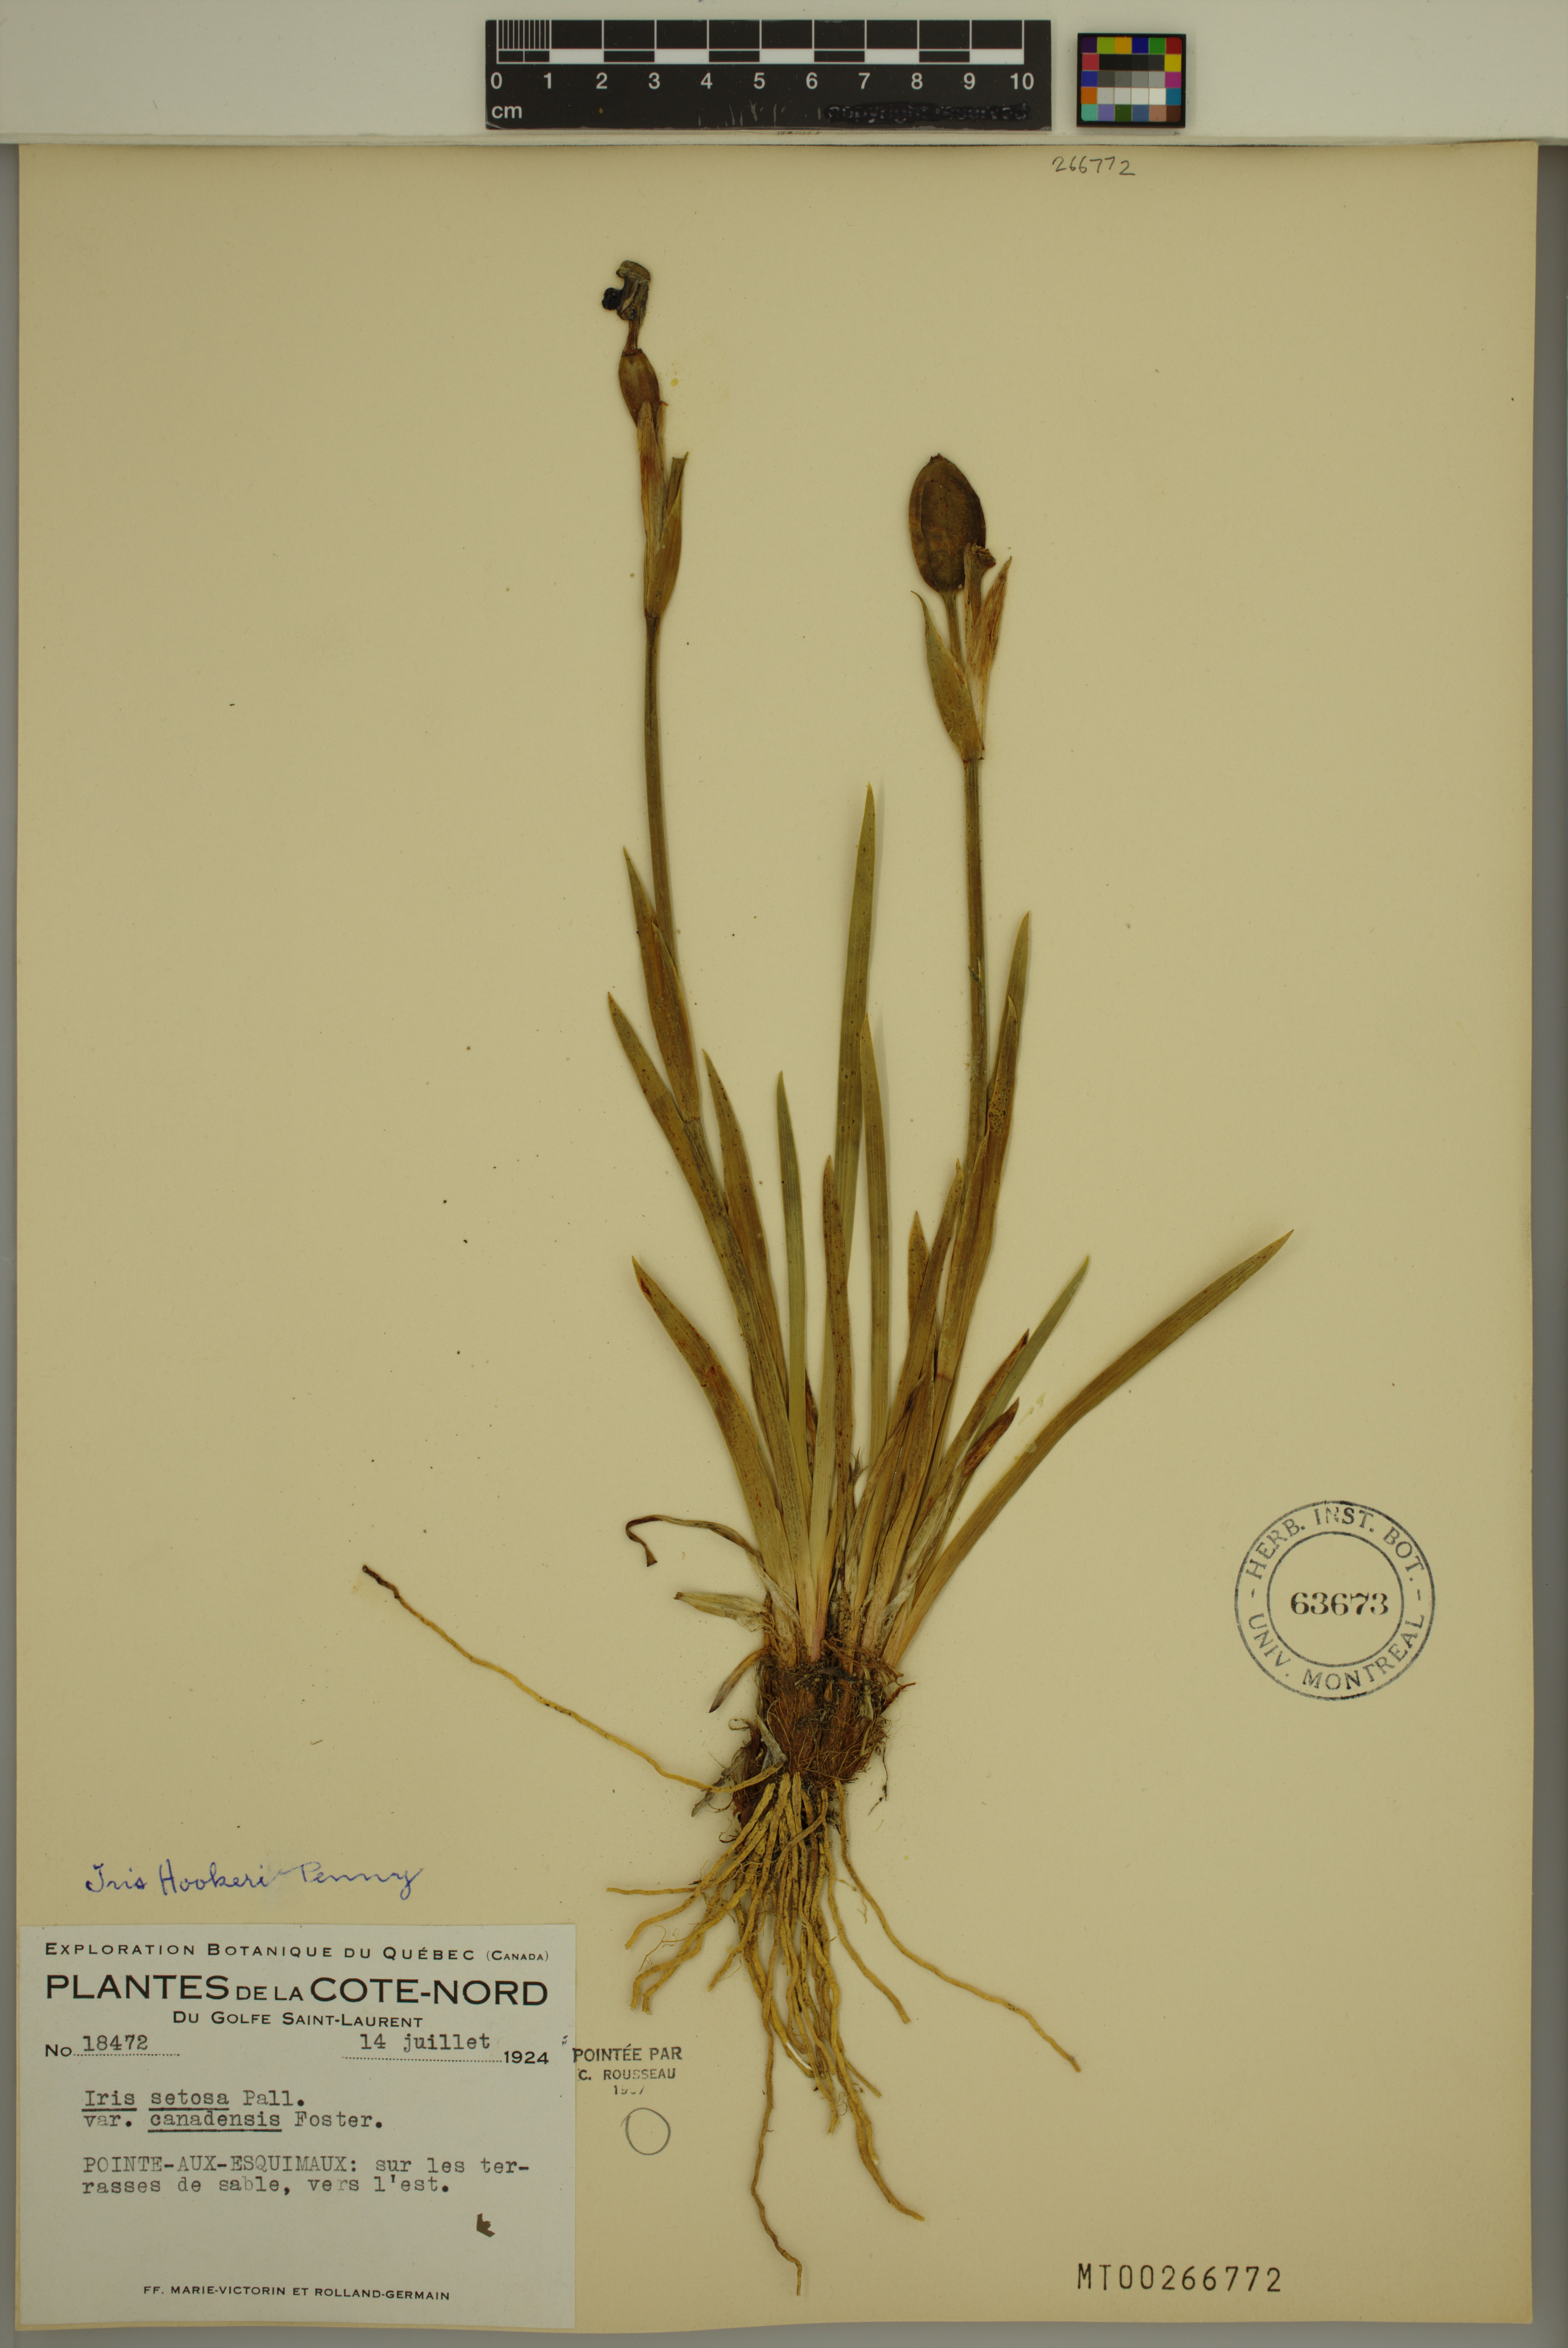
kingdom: Plantae
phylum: Tracheophyta
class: Liliopsida
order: Asparagales
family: Iridaceae
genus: Iris
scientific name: Iris hookeri
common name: Canada beach-head iris
